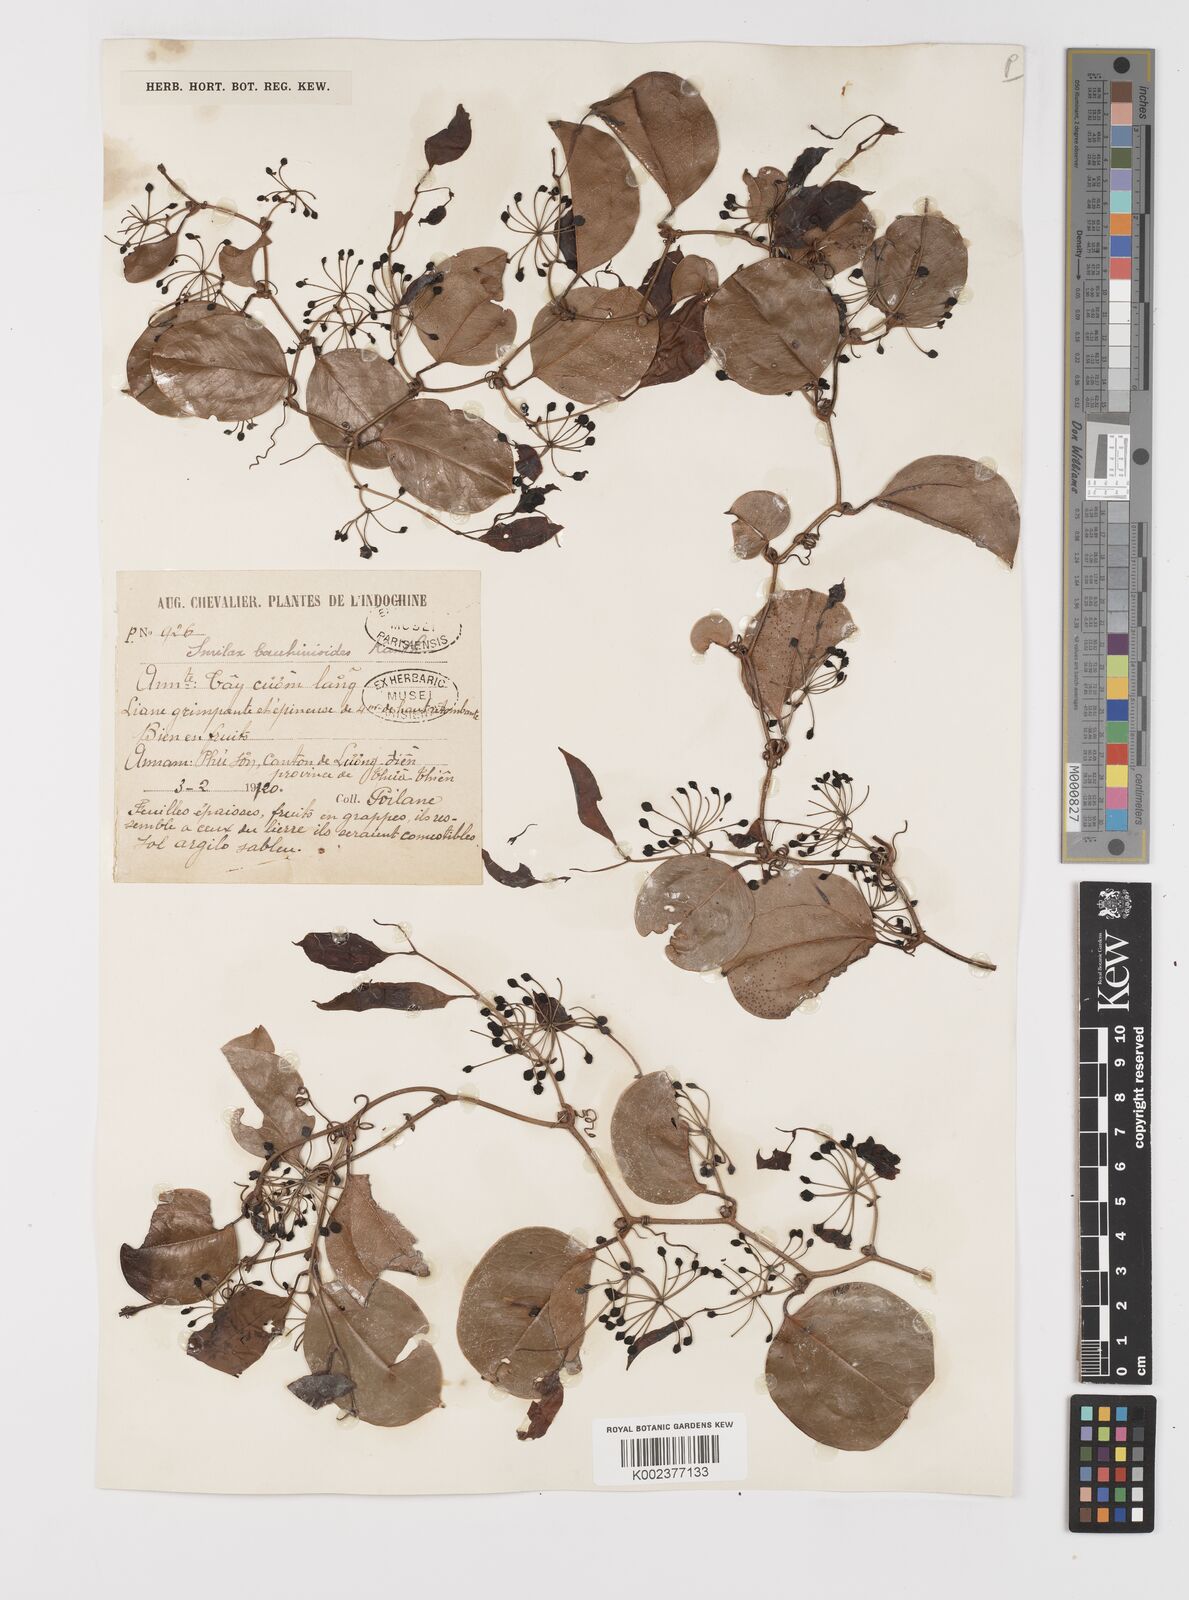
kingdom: Plantae
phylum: Tracheophyta
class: Liliopsida
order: Liliales
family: Smilacaceae
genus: Smilax
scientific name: Smilax bauhinioides
